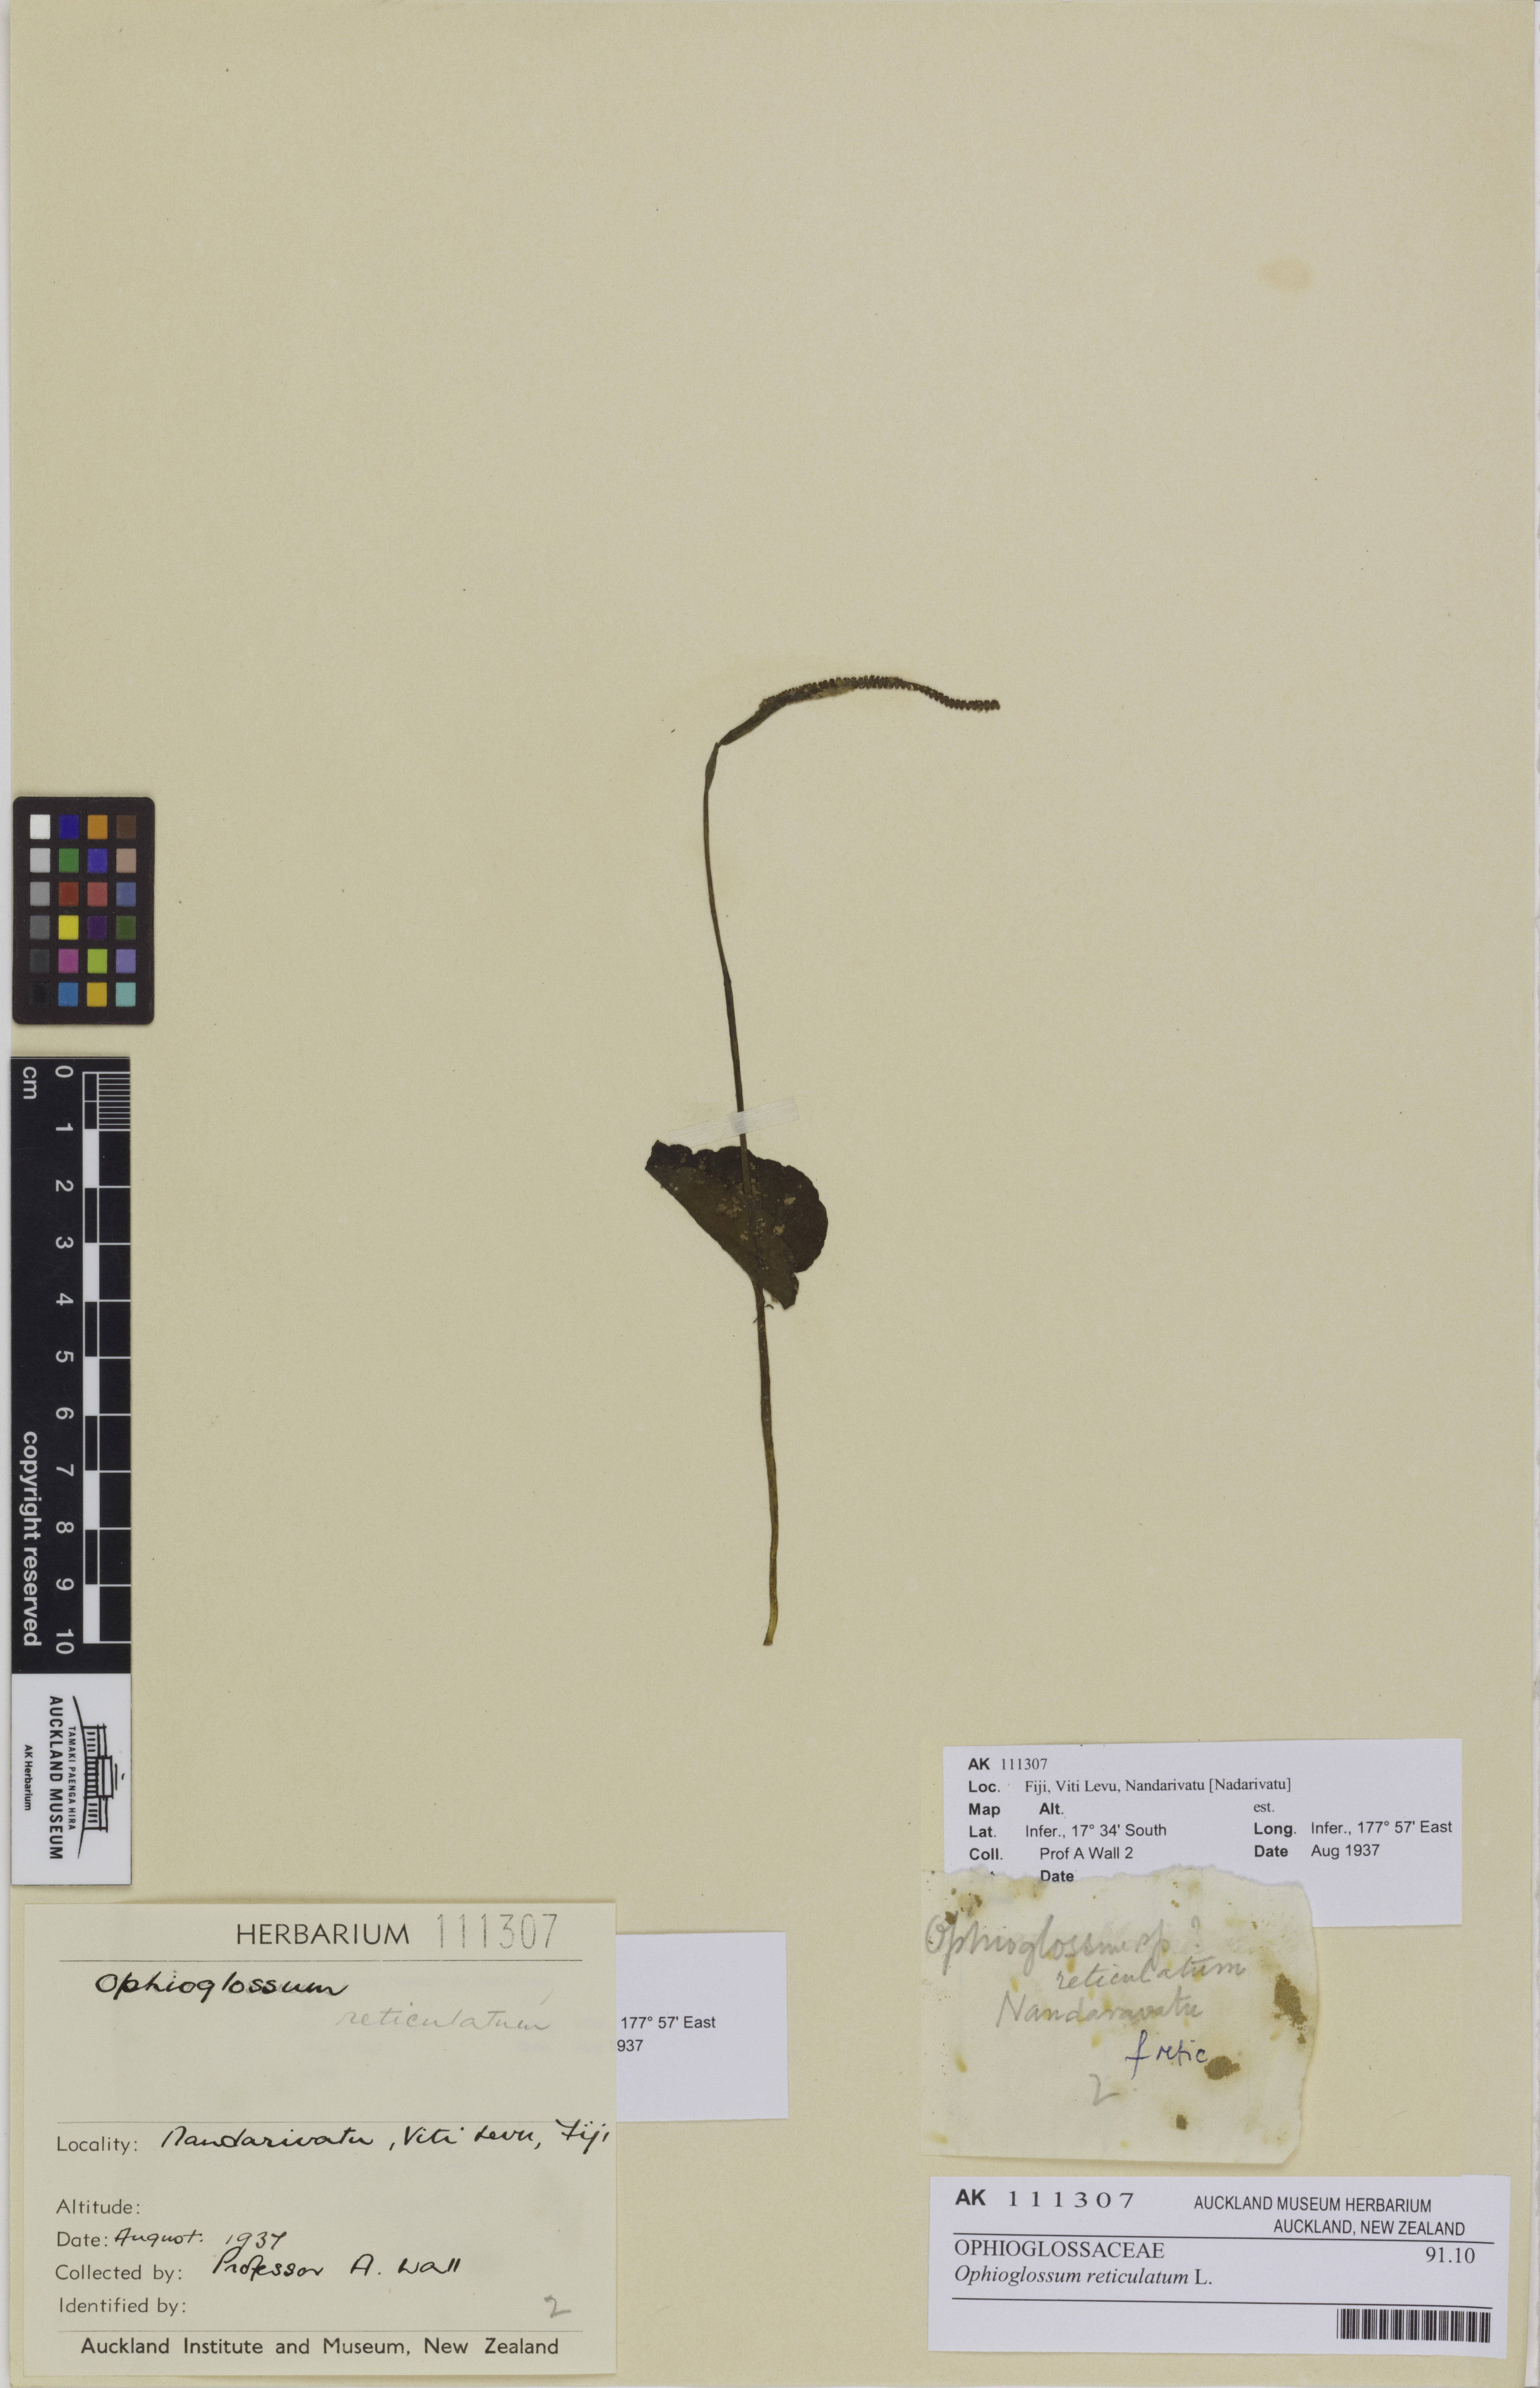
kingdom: Plantae
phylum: Tracheophyta
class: Polypodiopsida
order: Ophioglossales
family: Ophioglossaceae
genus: Ophioglossum
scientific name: Ophioglossum reticulatum
